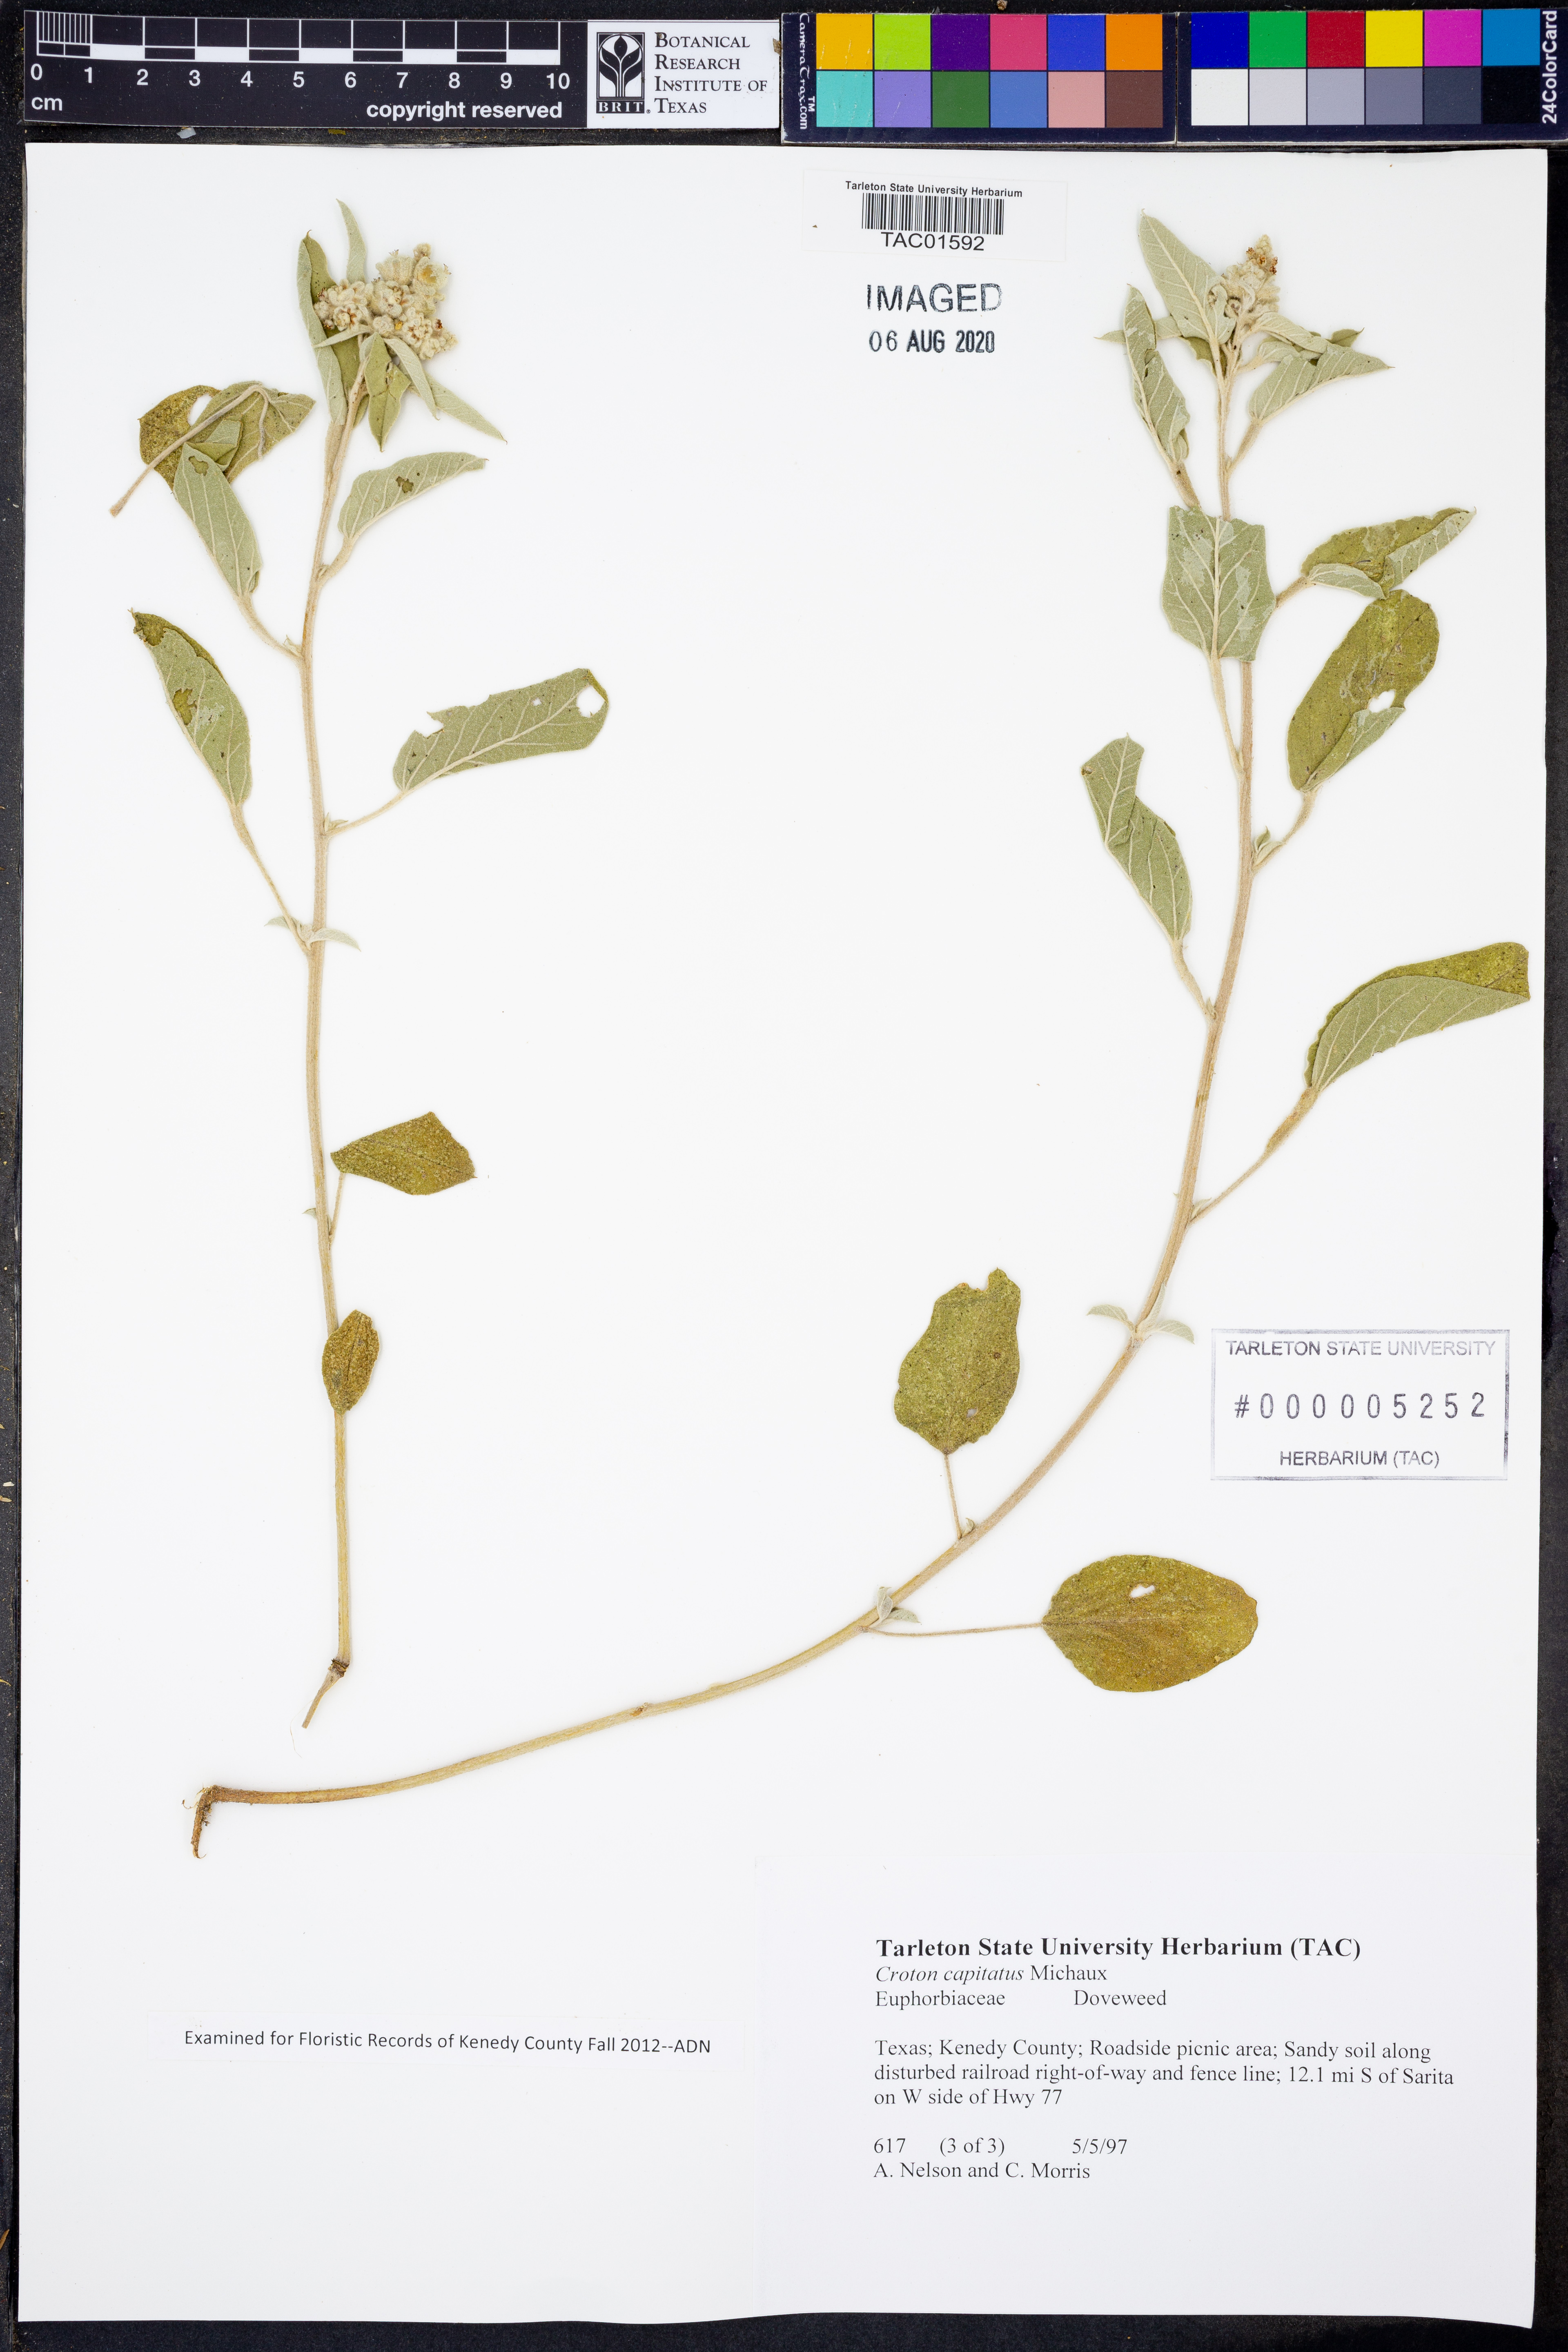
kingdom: Plantae
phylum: Tracheophyta
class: Magnoliopsida
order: Malpighiales
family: Euphorbiaceae
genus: Croton
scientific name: Croton capitatus
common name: Woolly croton
